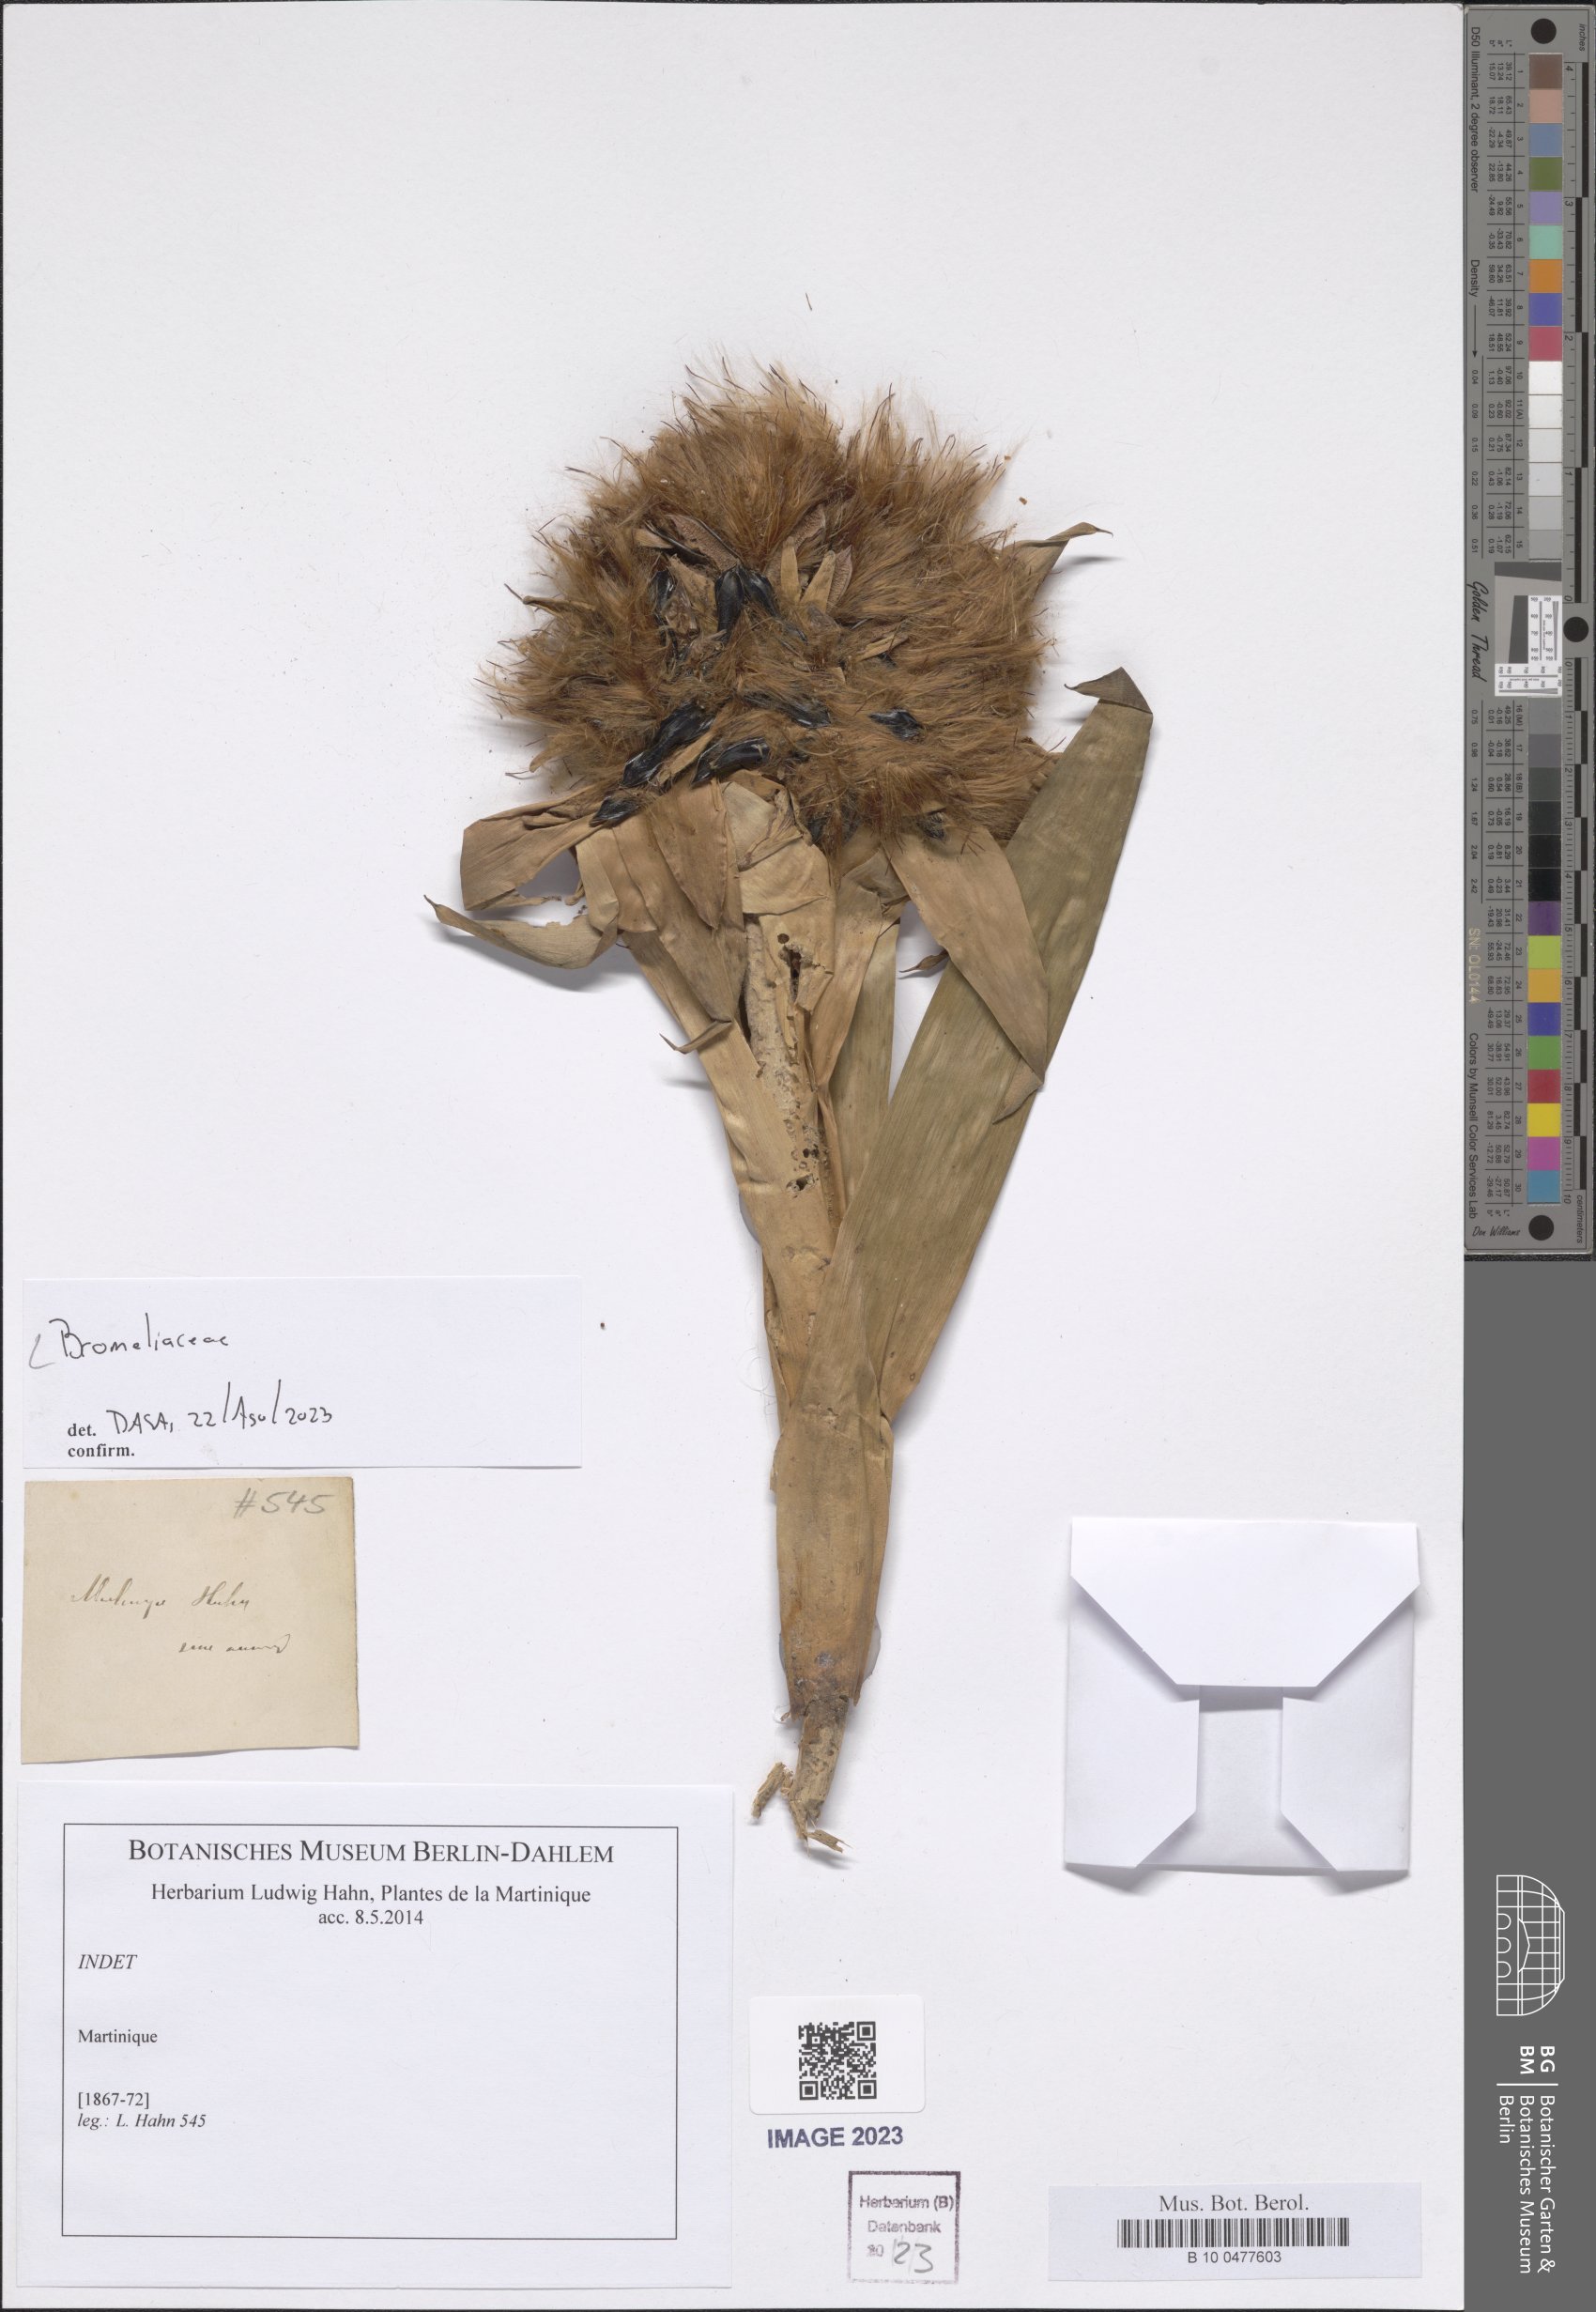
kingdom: Plantae
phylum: Tracheophyta
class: Liliopsida
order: Poales
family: Bromeliaceae
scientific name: Bromeliaceae
